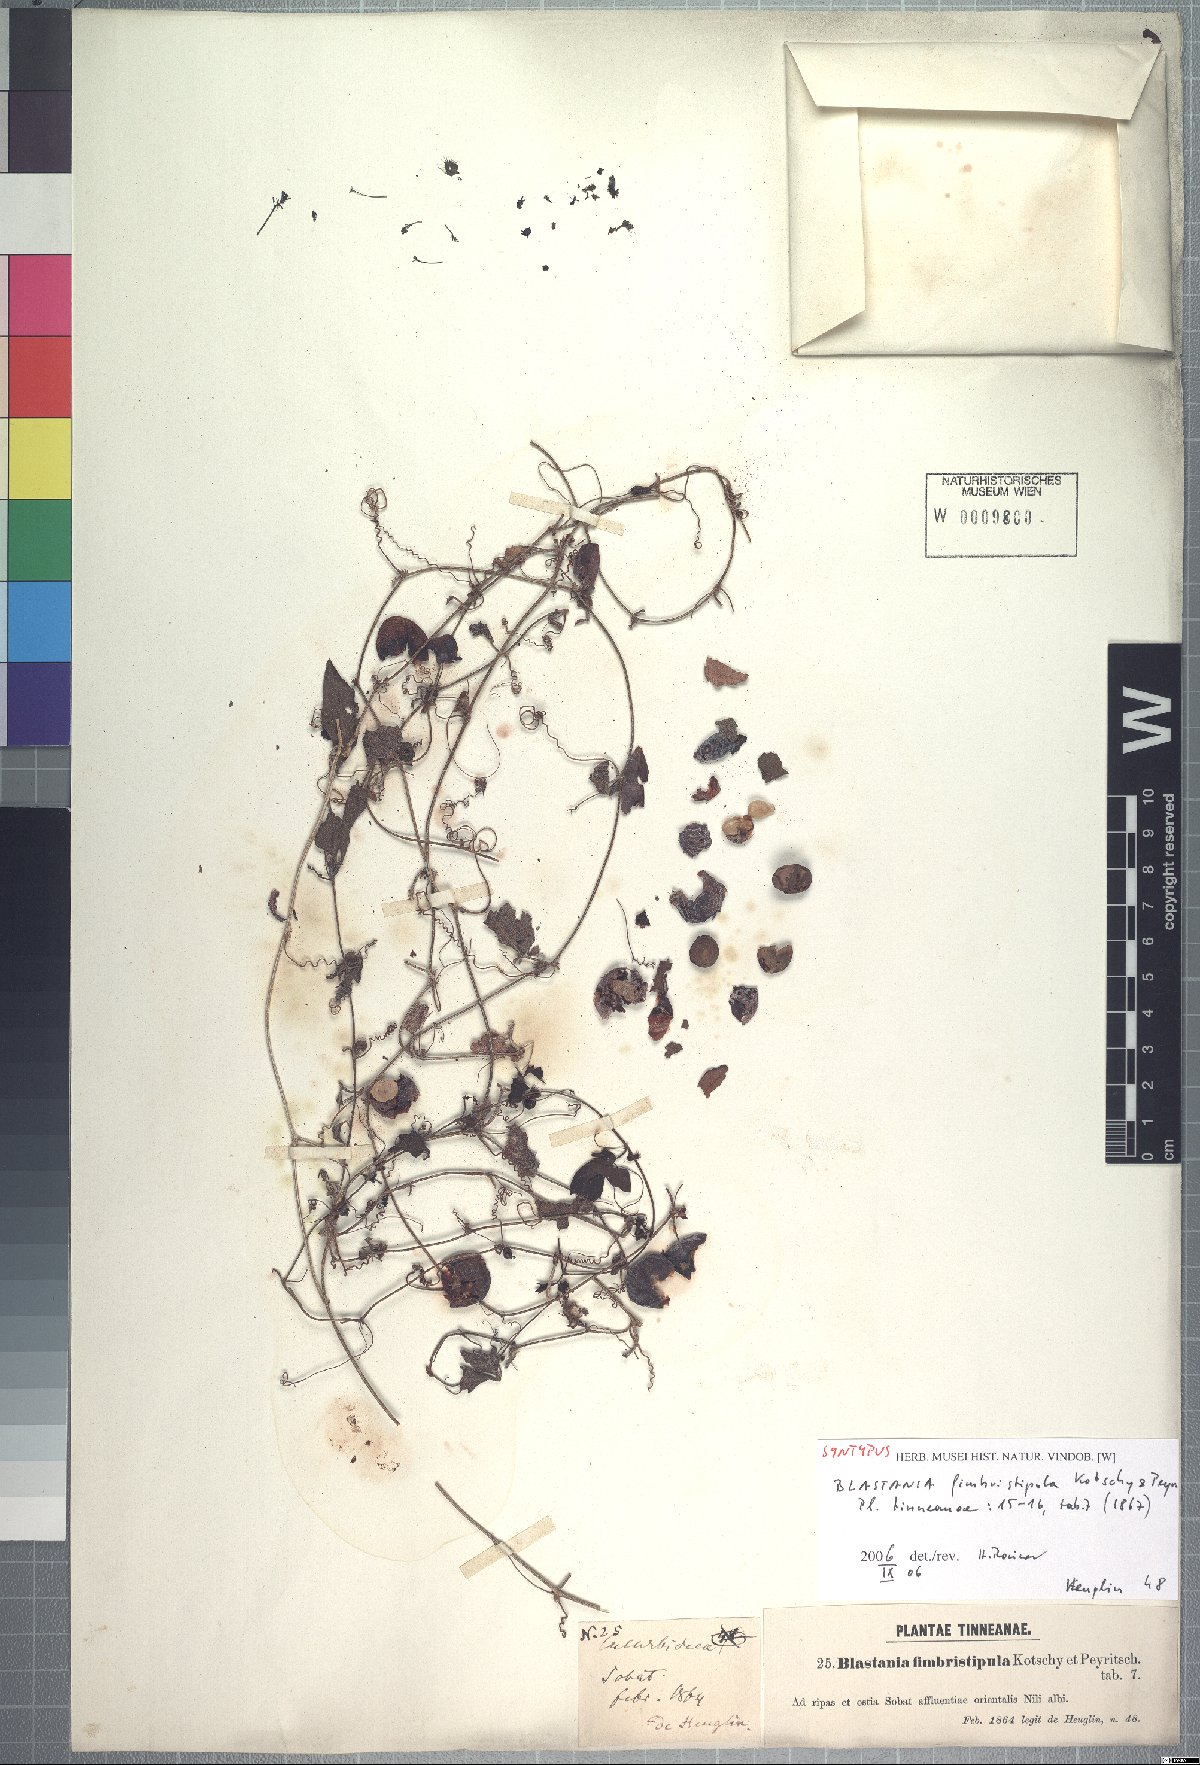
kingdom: Plantae
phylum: Tracheophyta
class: Magnoliopsida
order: Cucurbitales
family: Cucurbitaceae
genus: Blastania
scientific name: Blastania cerasiformis
